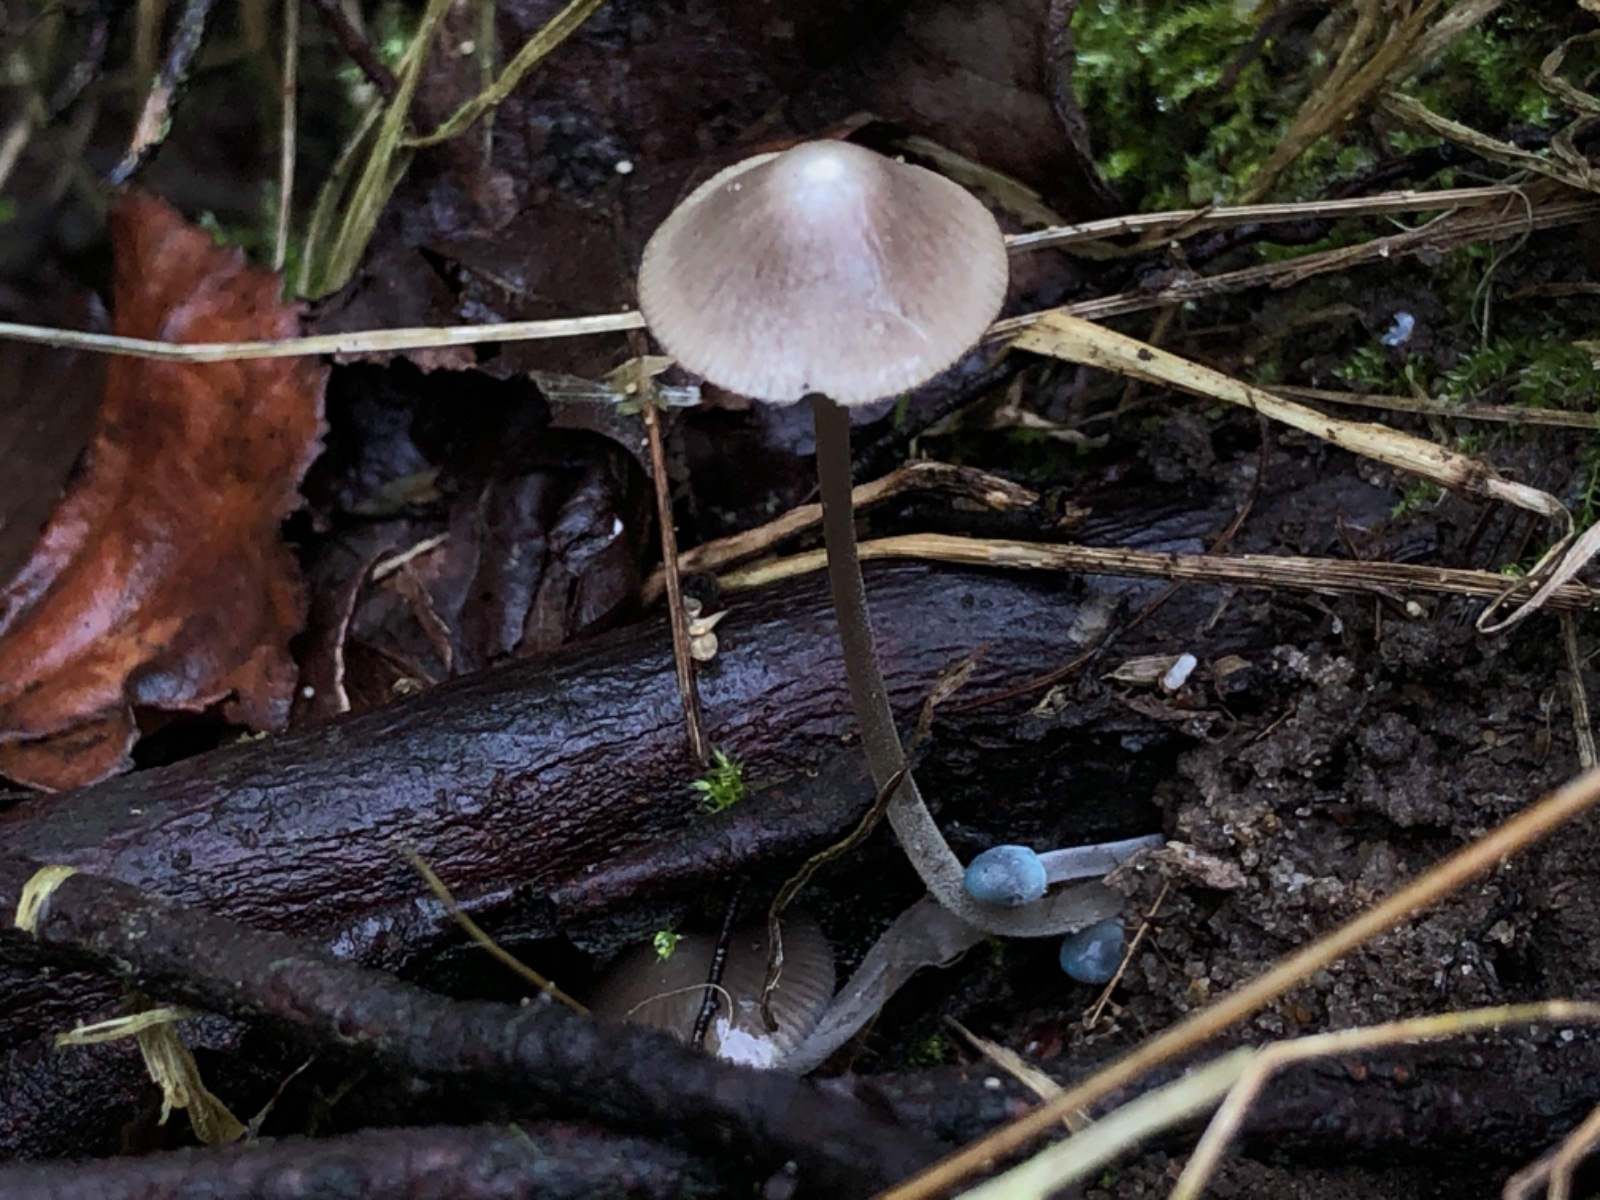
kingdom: Fungi
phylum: Basidiomycota
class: Agaricomycetes
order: Agaricales
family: Mycenaceae
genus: Mycena
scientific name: Mycena amicta
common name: iris-huesvamp
